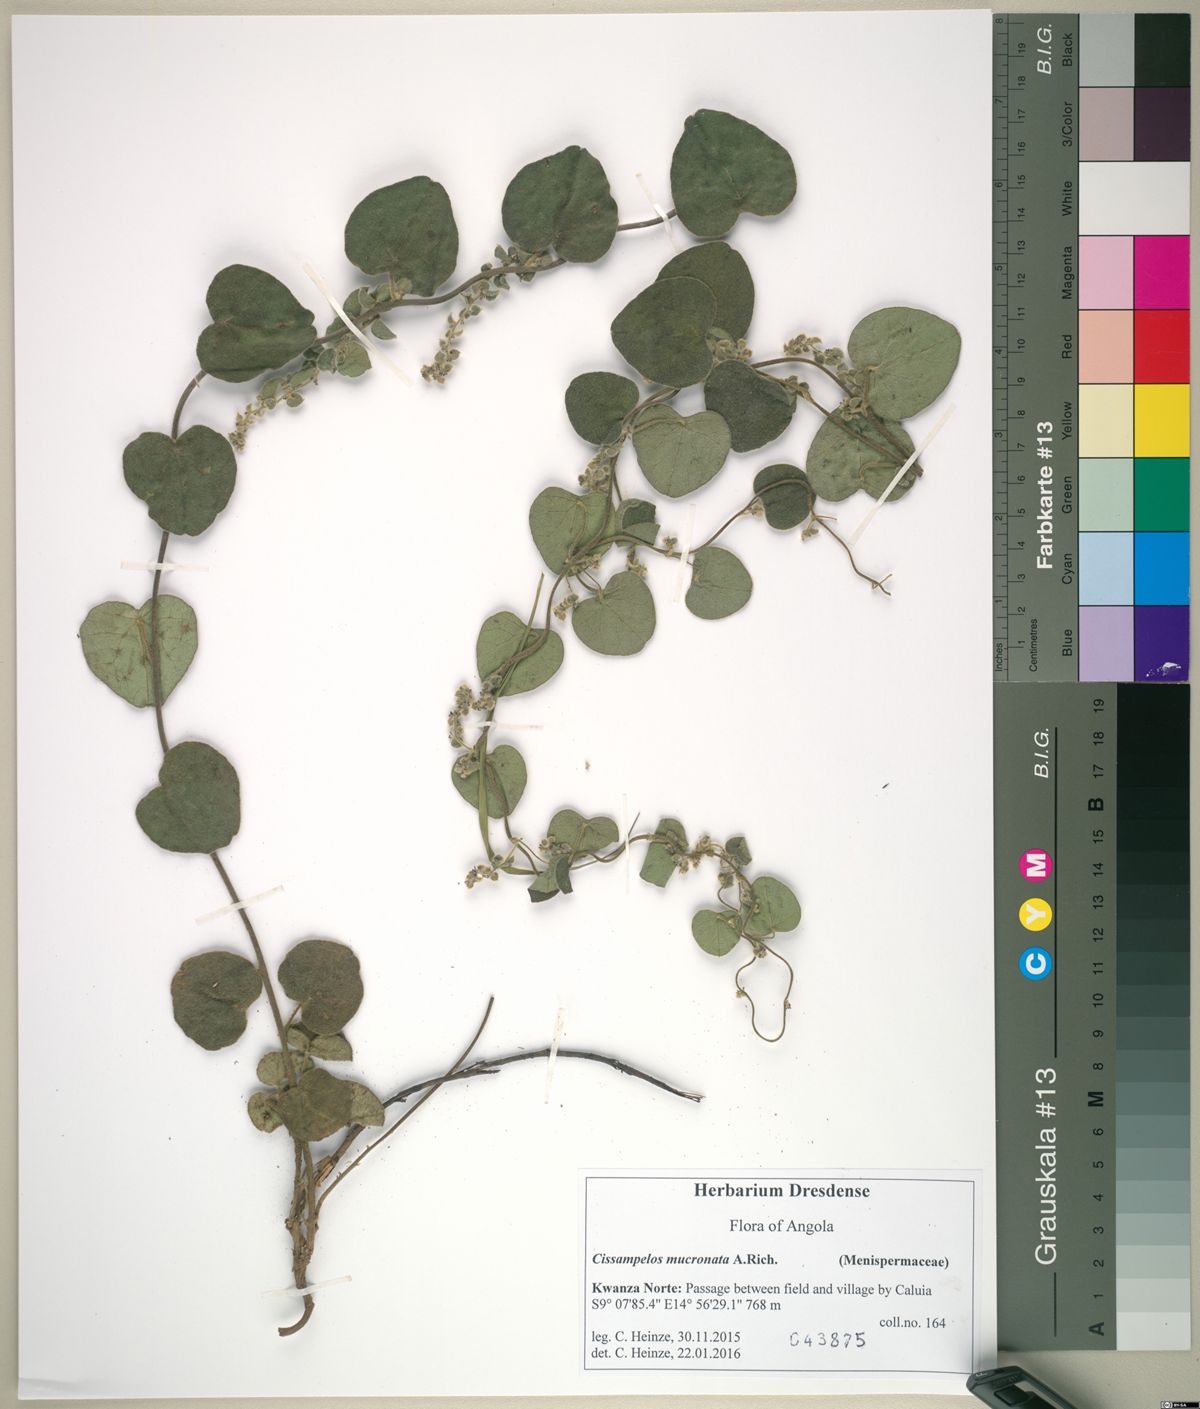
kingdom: Plantae
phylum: Tracheophyta
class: Magnoliopsida
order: Ranunculales
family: Menispermaceae
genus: Cissampelos
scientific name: Cissampelos mucronata
